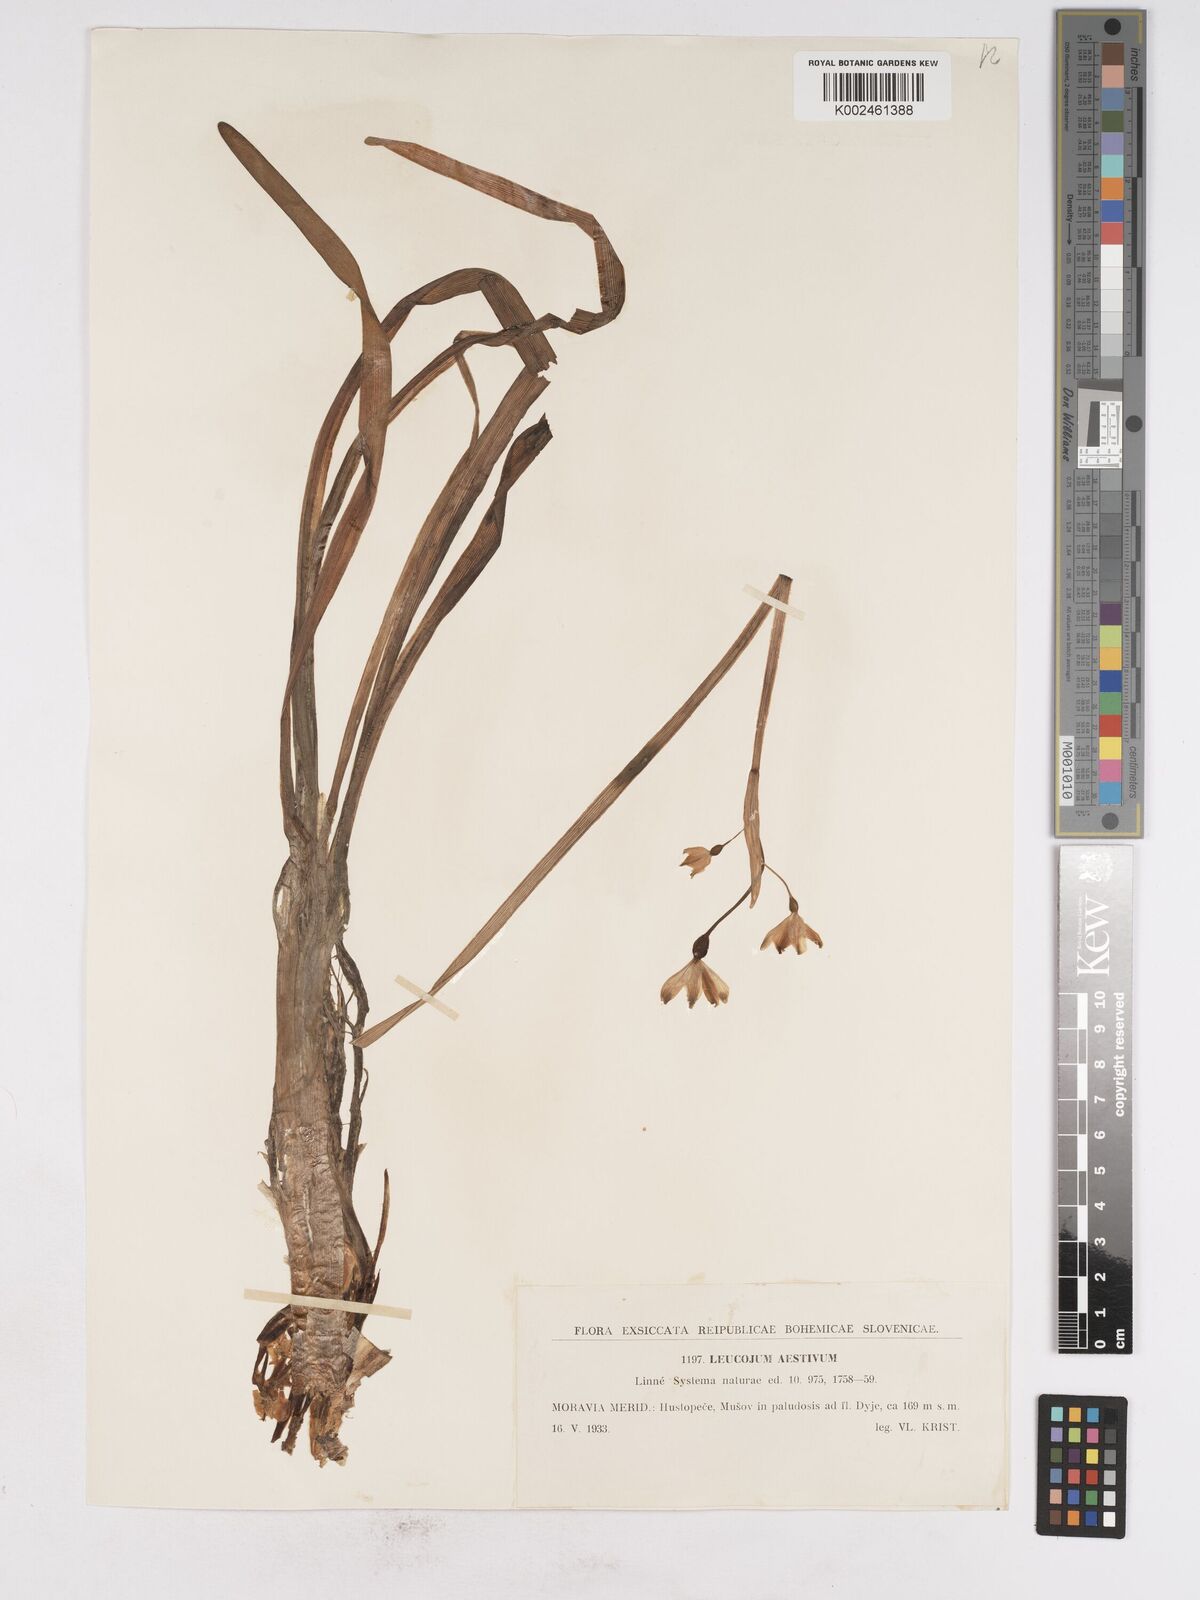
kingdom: Plantae
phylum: Tracheophyta
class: Liliopsida
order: Asparagales
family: Amaryllidaceae
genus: Leucojum
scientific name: Leucojum aestivum
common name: Summer snowflake
